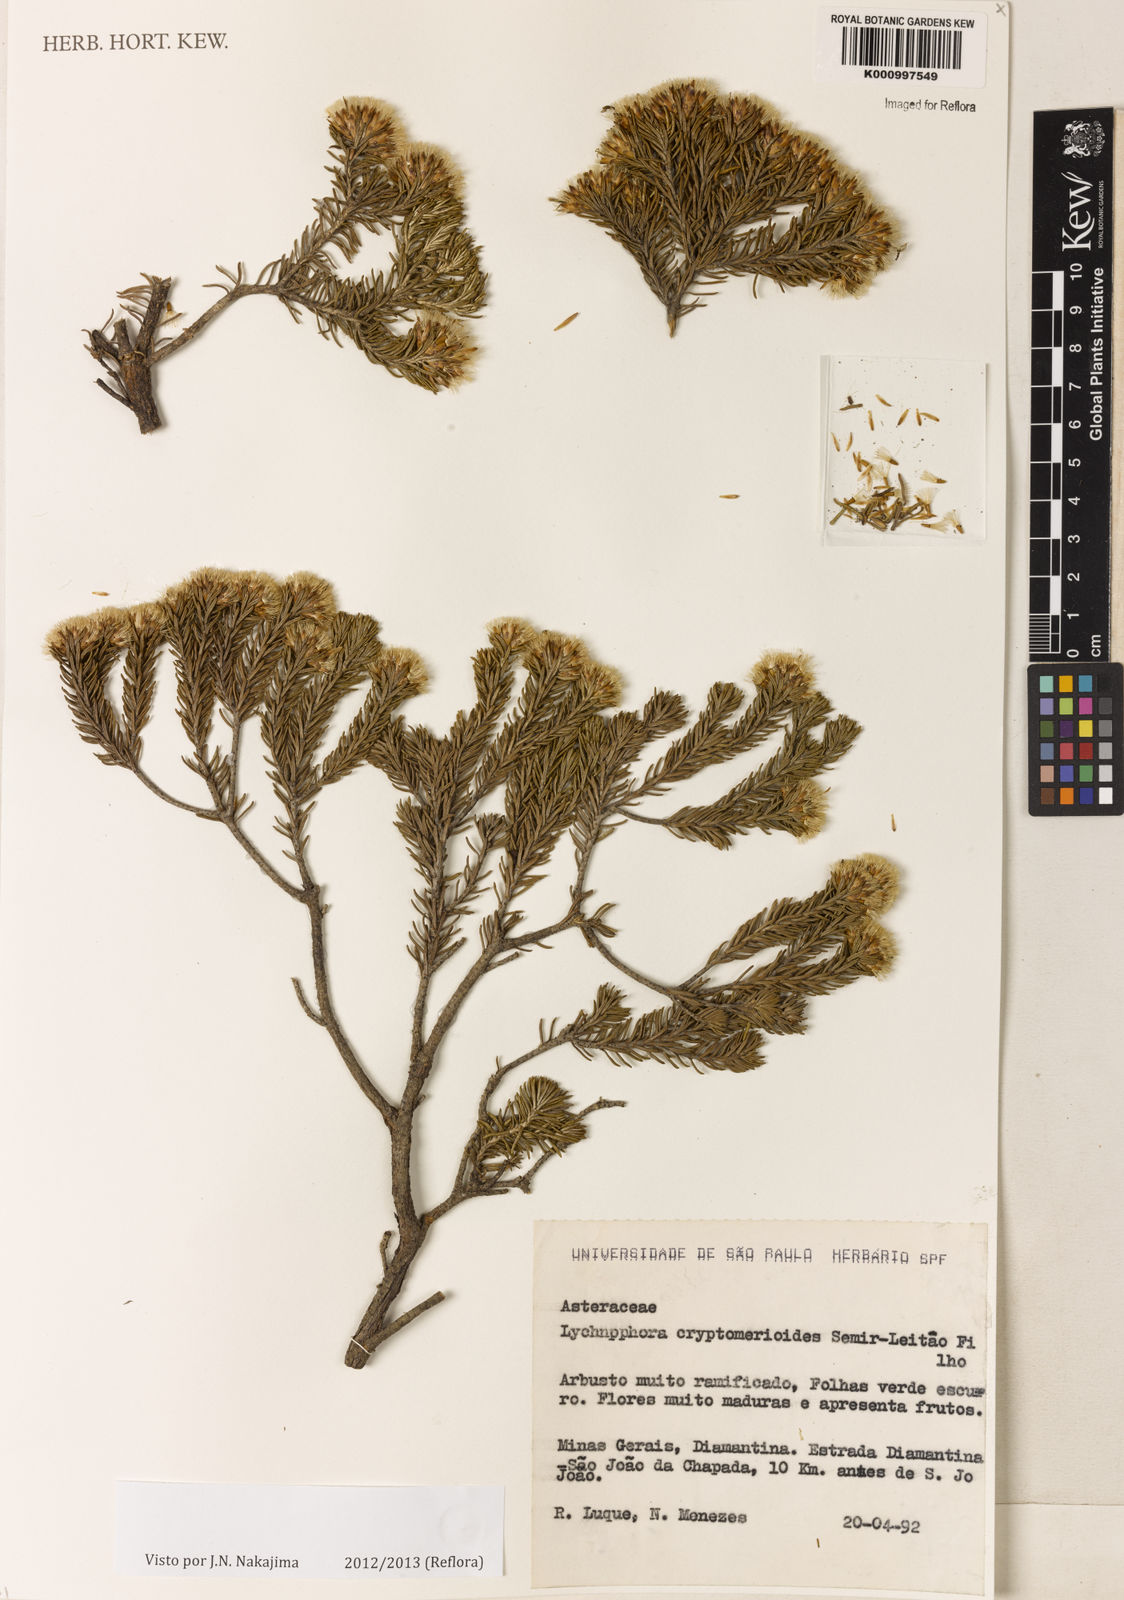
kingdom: Plantae
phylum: Tracheophyta
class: Magnoliopsida
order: Asterales
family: Asteraceae
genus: Lychnophora
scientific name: Lychnophora
